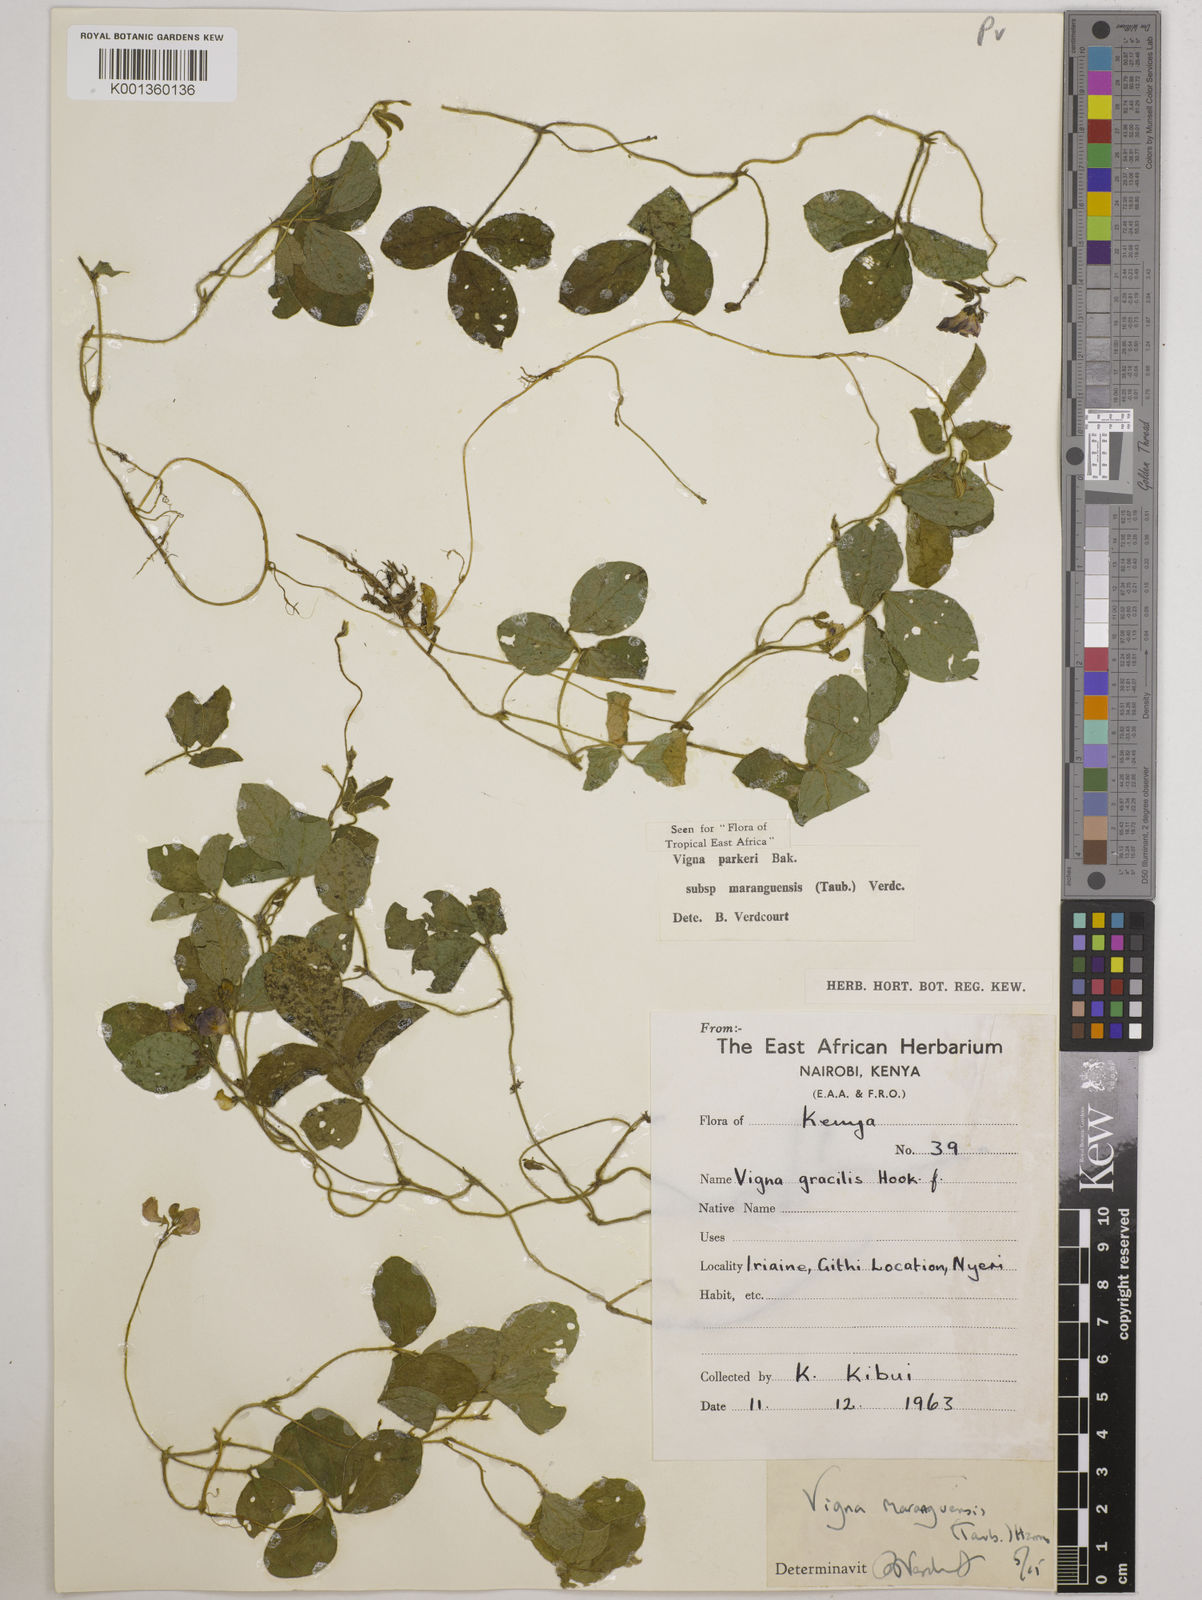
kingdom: Plantae
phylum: Tracheophyta
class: Magnoliopsida
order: Fabales
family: Fabaceae
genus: Vigna
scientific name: Vigna
